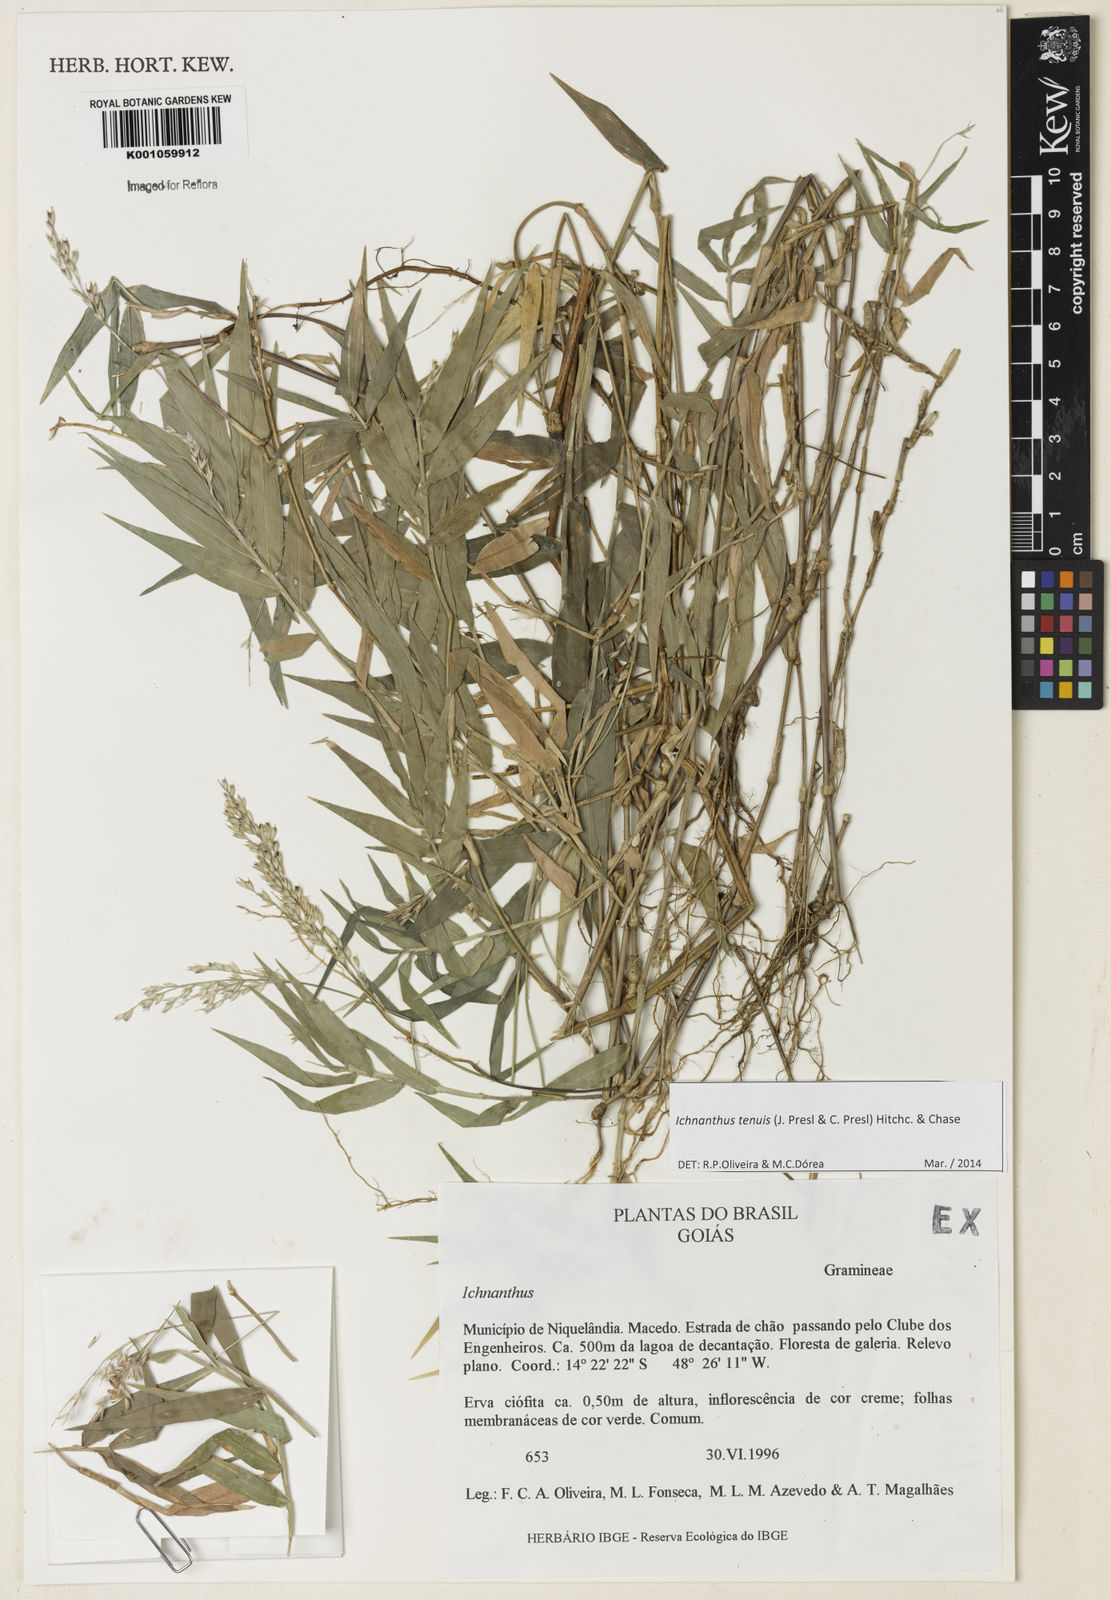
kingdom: Plantae
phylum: Tracheophyta
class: Liliopsida
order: Poales
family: Poaceae
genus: Ichnanthus
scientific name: Ichnanthus tenuis
